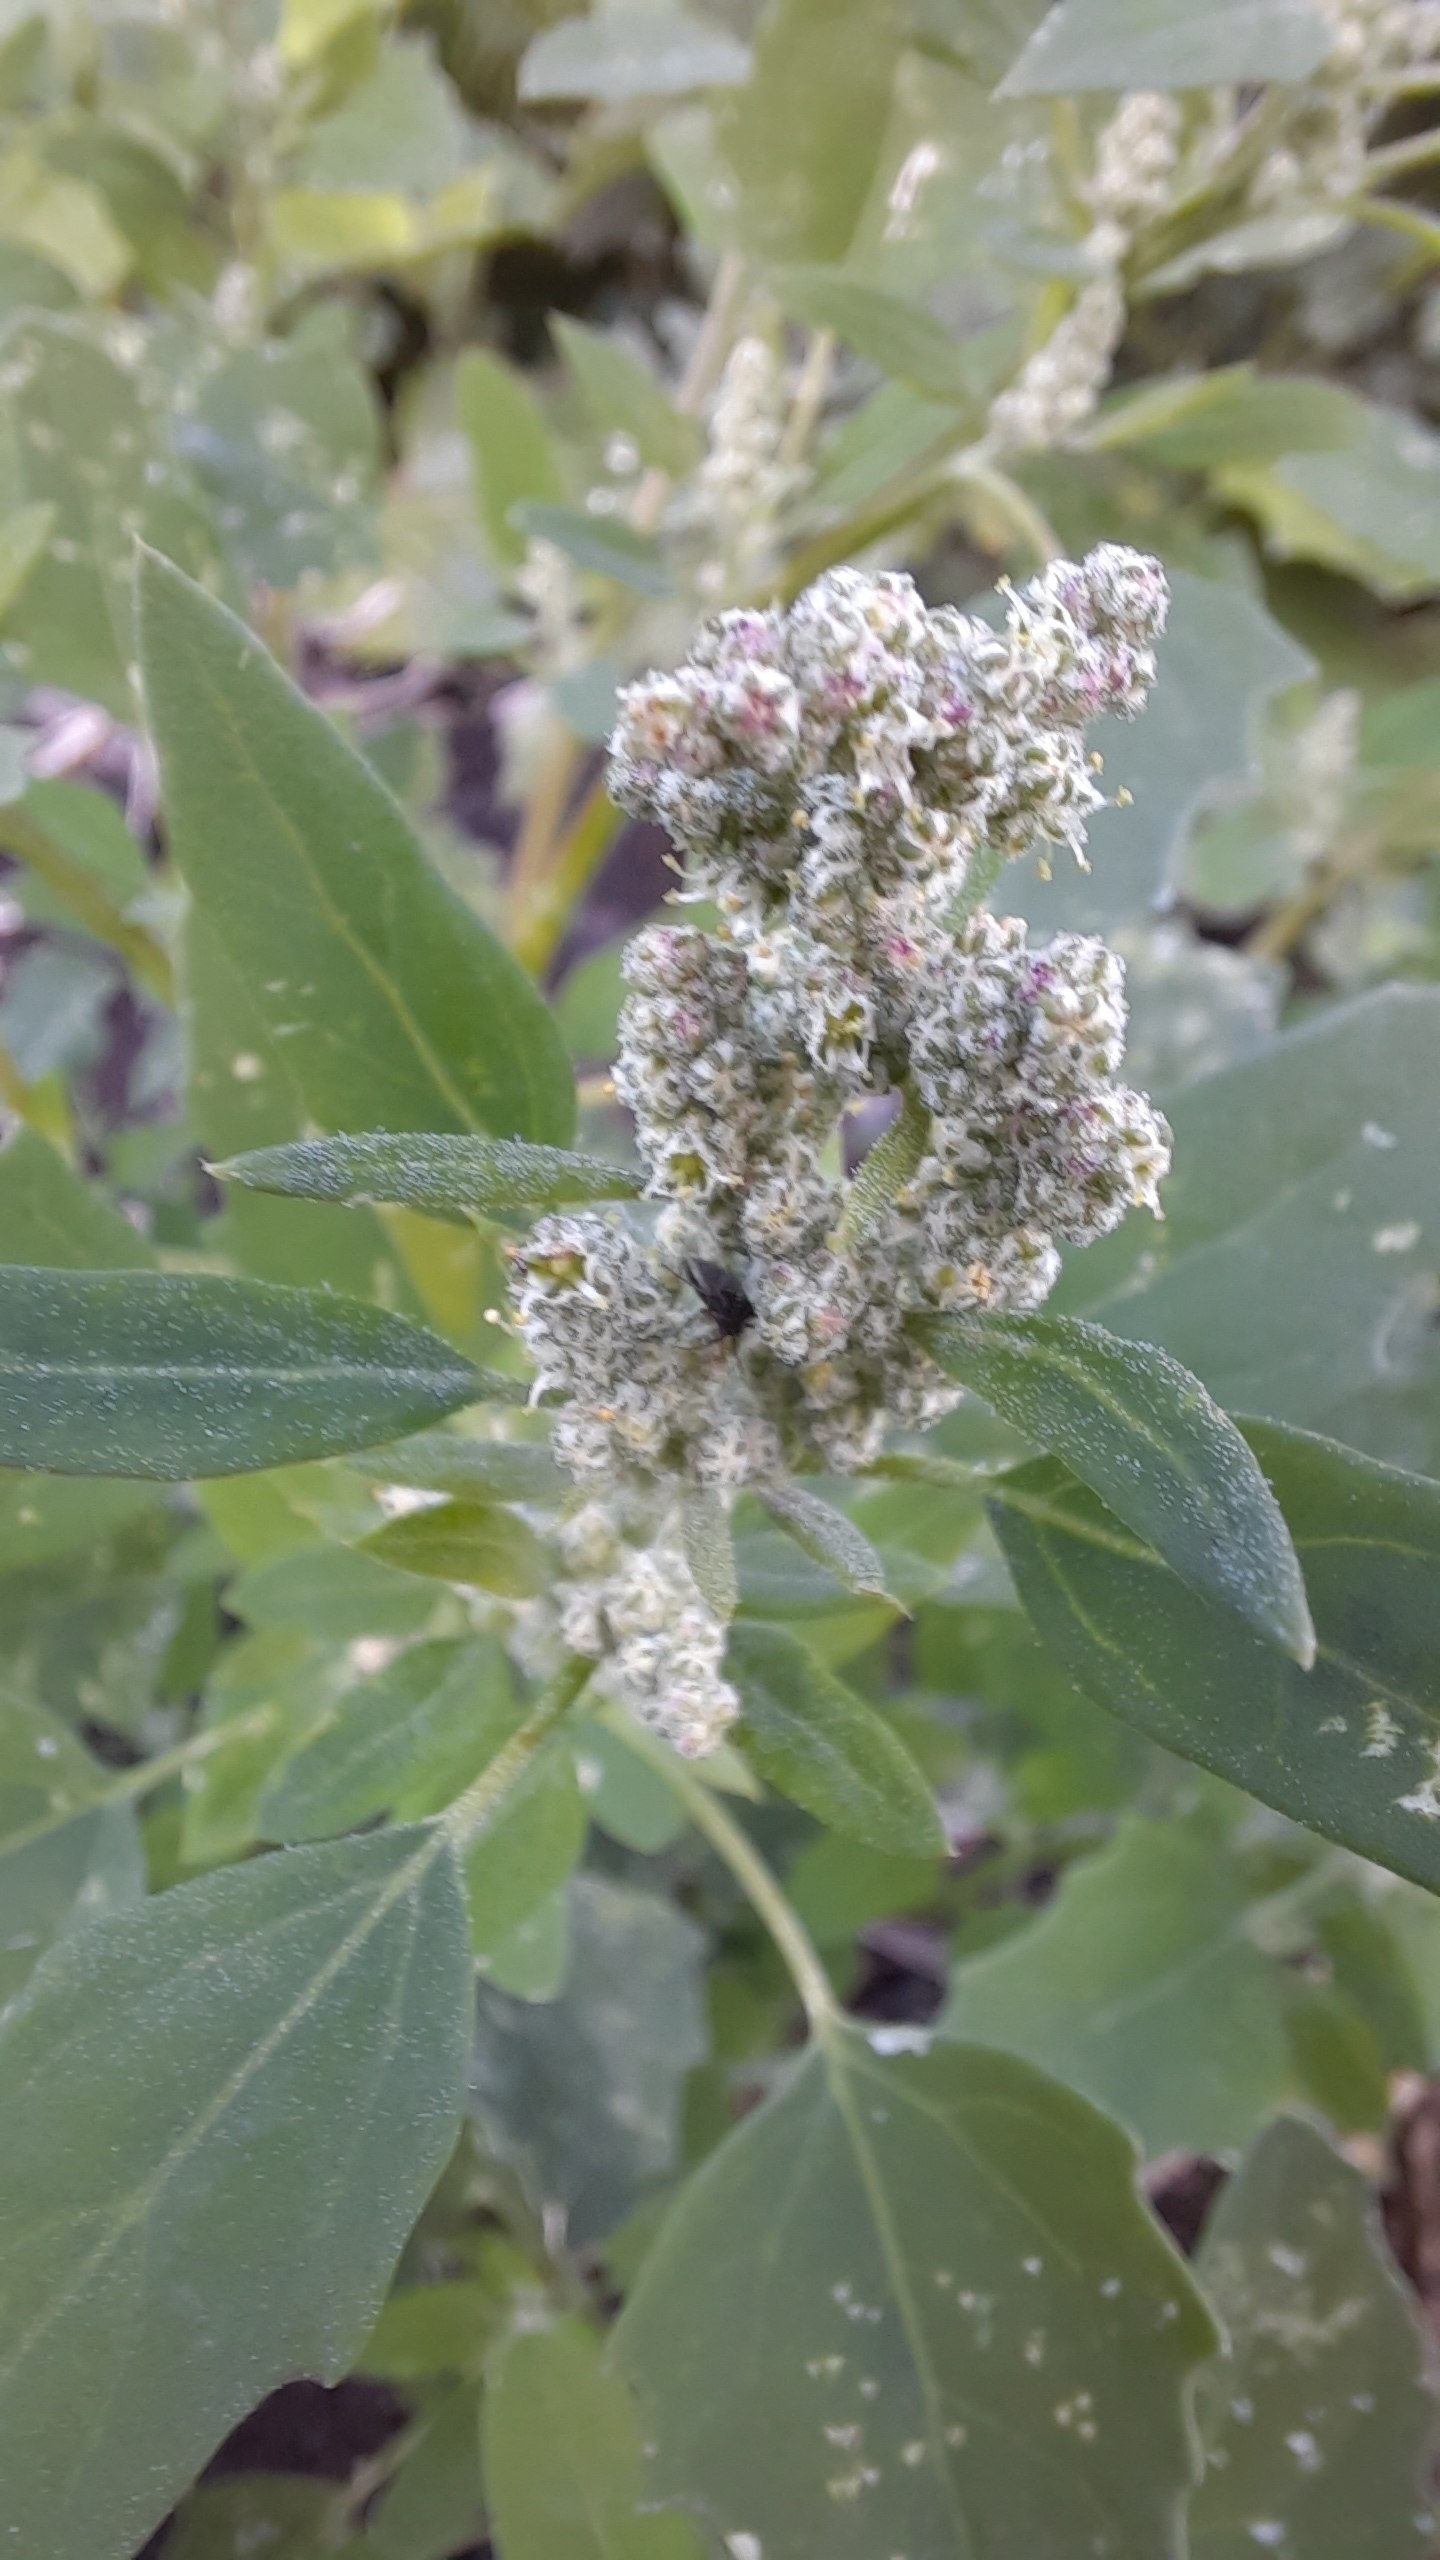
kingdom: Plantae
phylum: Tracheophyta
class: Magnoliopsida
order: Caryophyllales
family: Amaranthaceae
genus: Chenopodium
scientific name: Chenopodium album
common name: Hvidmelet gåsefod
